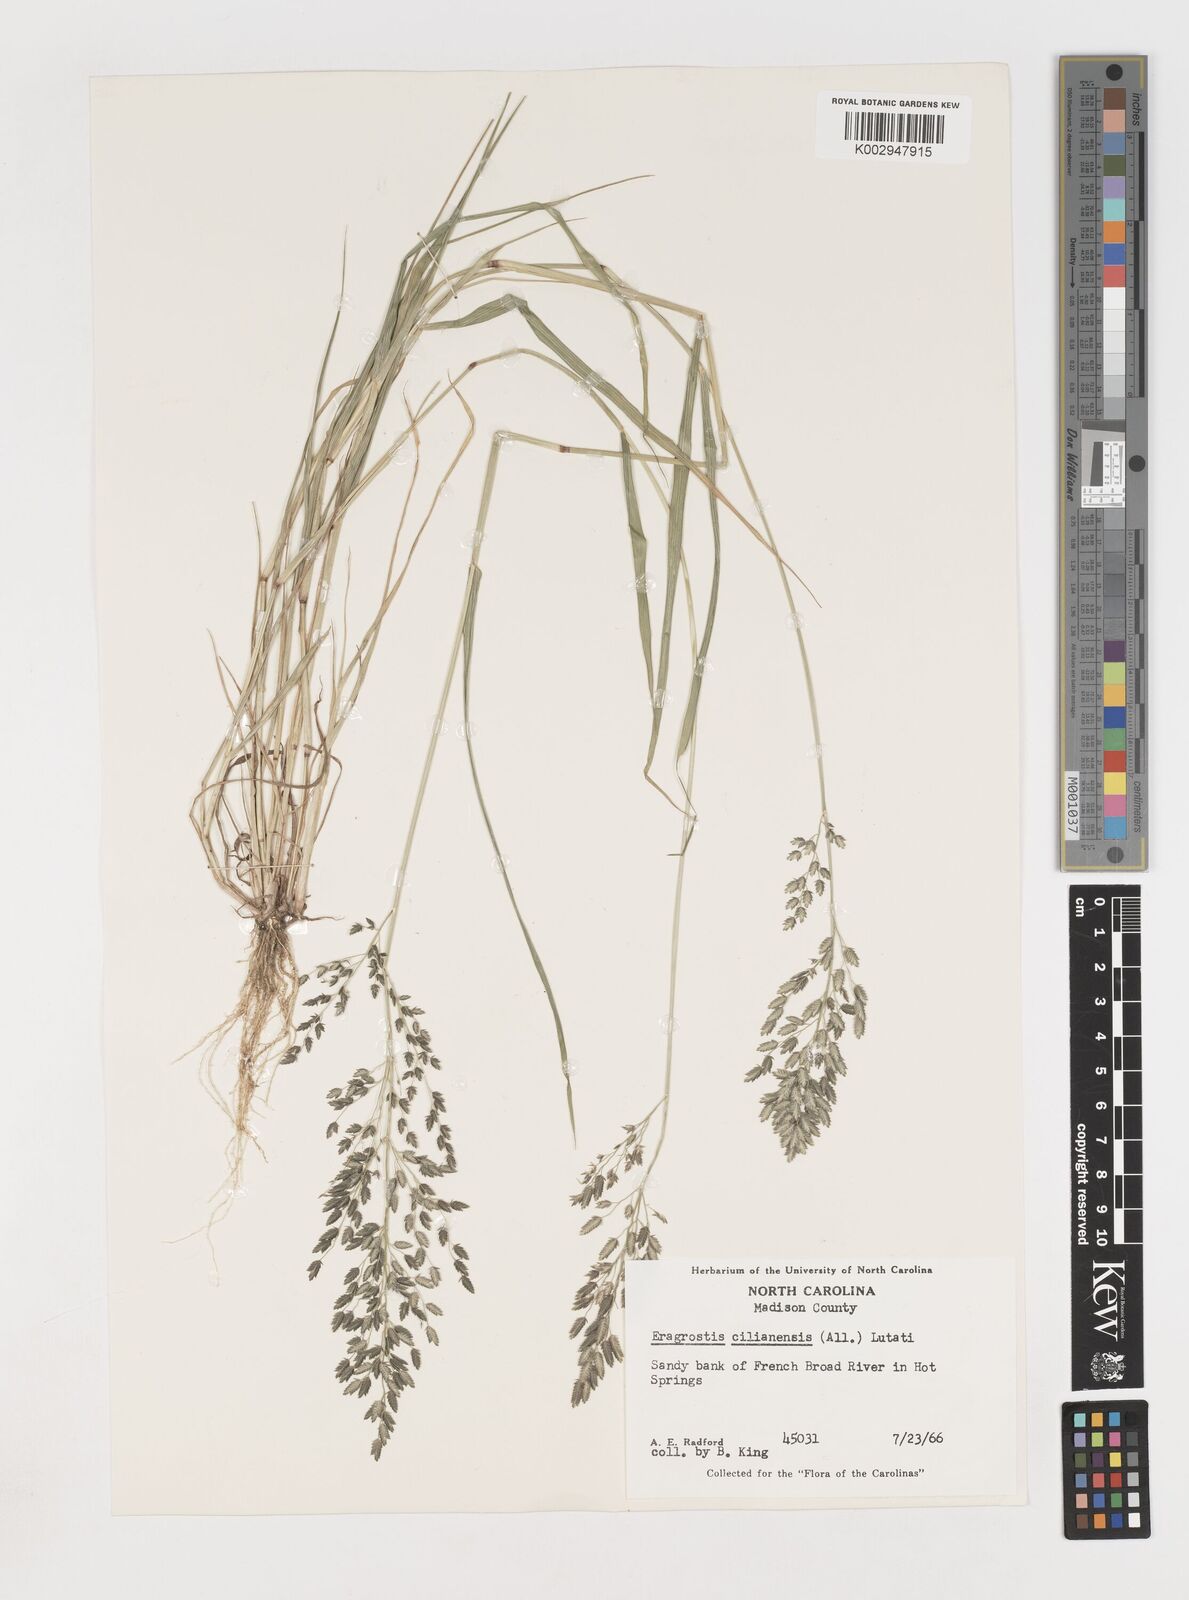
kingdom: Plantae
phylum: Tracheophyta
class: Liliopsida
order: Poales
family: Poaceae
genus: Eragrostis
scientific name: Eragrostis
